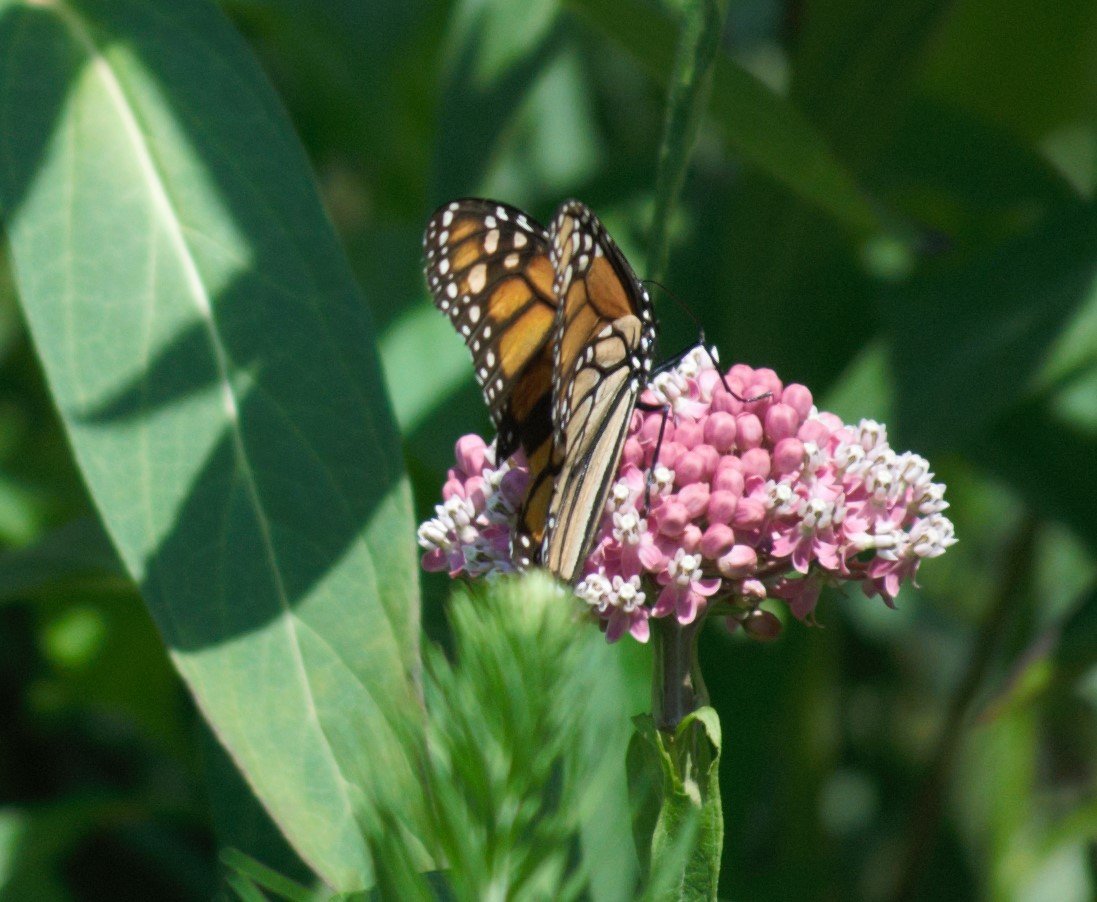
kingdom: Animalia
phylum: Arthropoda
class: Insecta
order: Lepidoptera
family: Nymphalidae
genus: Danaus
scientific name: Danaus plexippus
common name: Monarch
